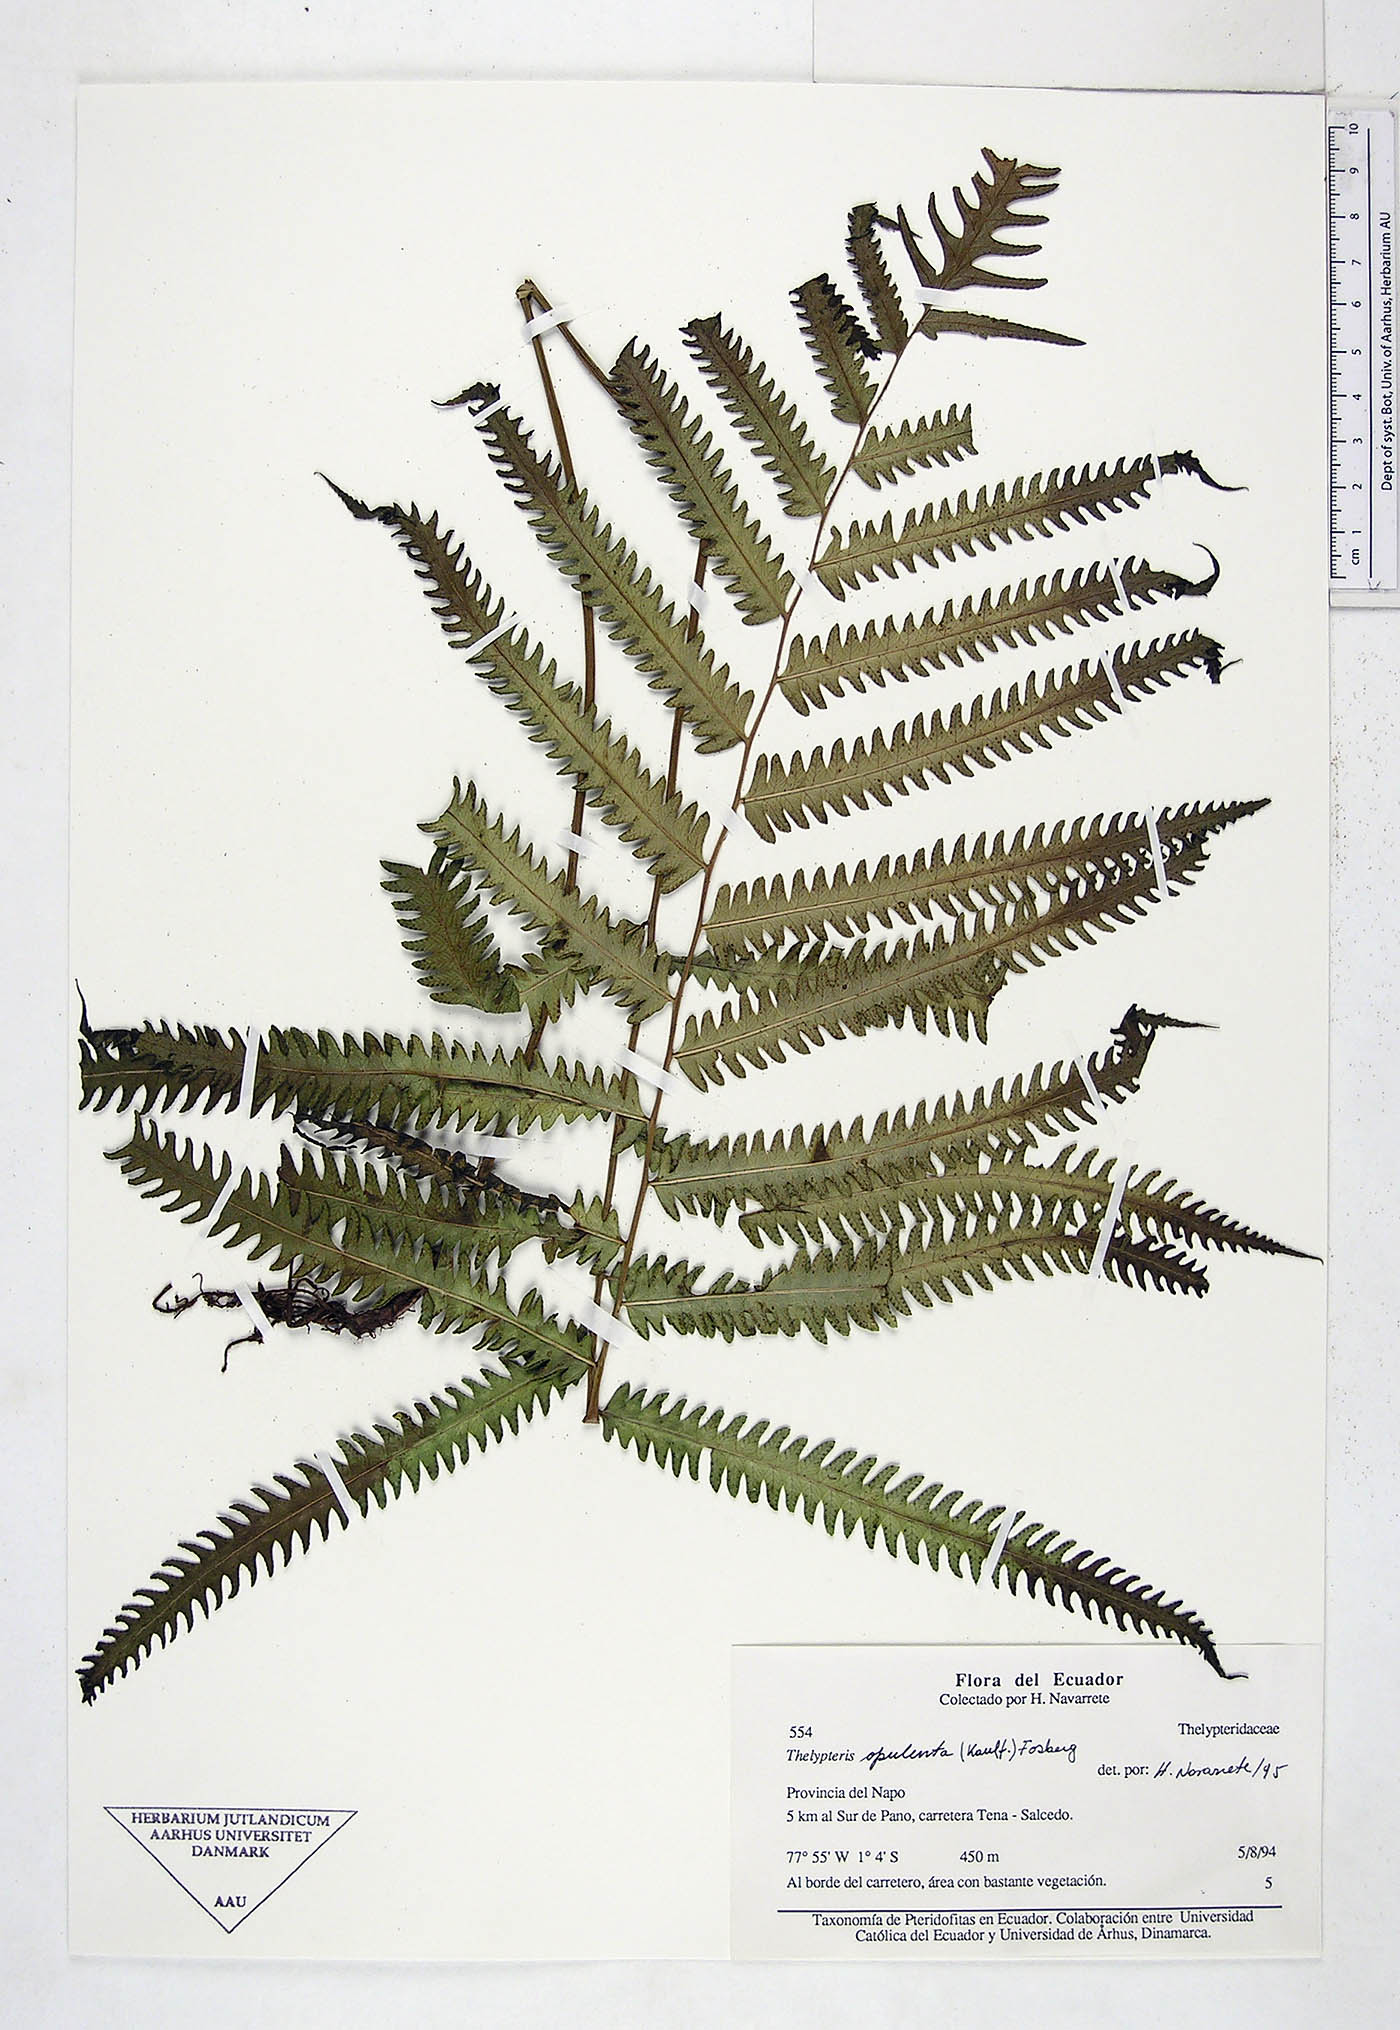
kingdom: Plantae
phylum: Tracheophyta
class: Polypodiopsida
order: Polypodiales
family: Thelypteridaceae
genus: Amblovenatum
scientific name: Amblovenatum opulentum
